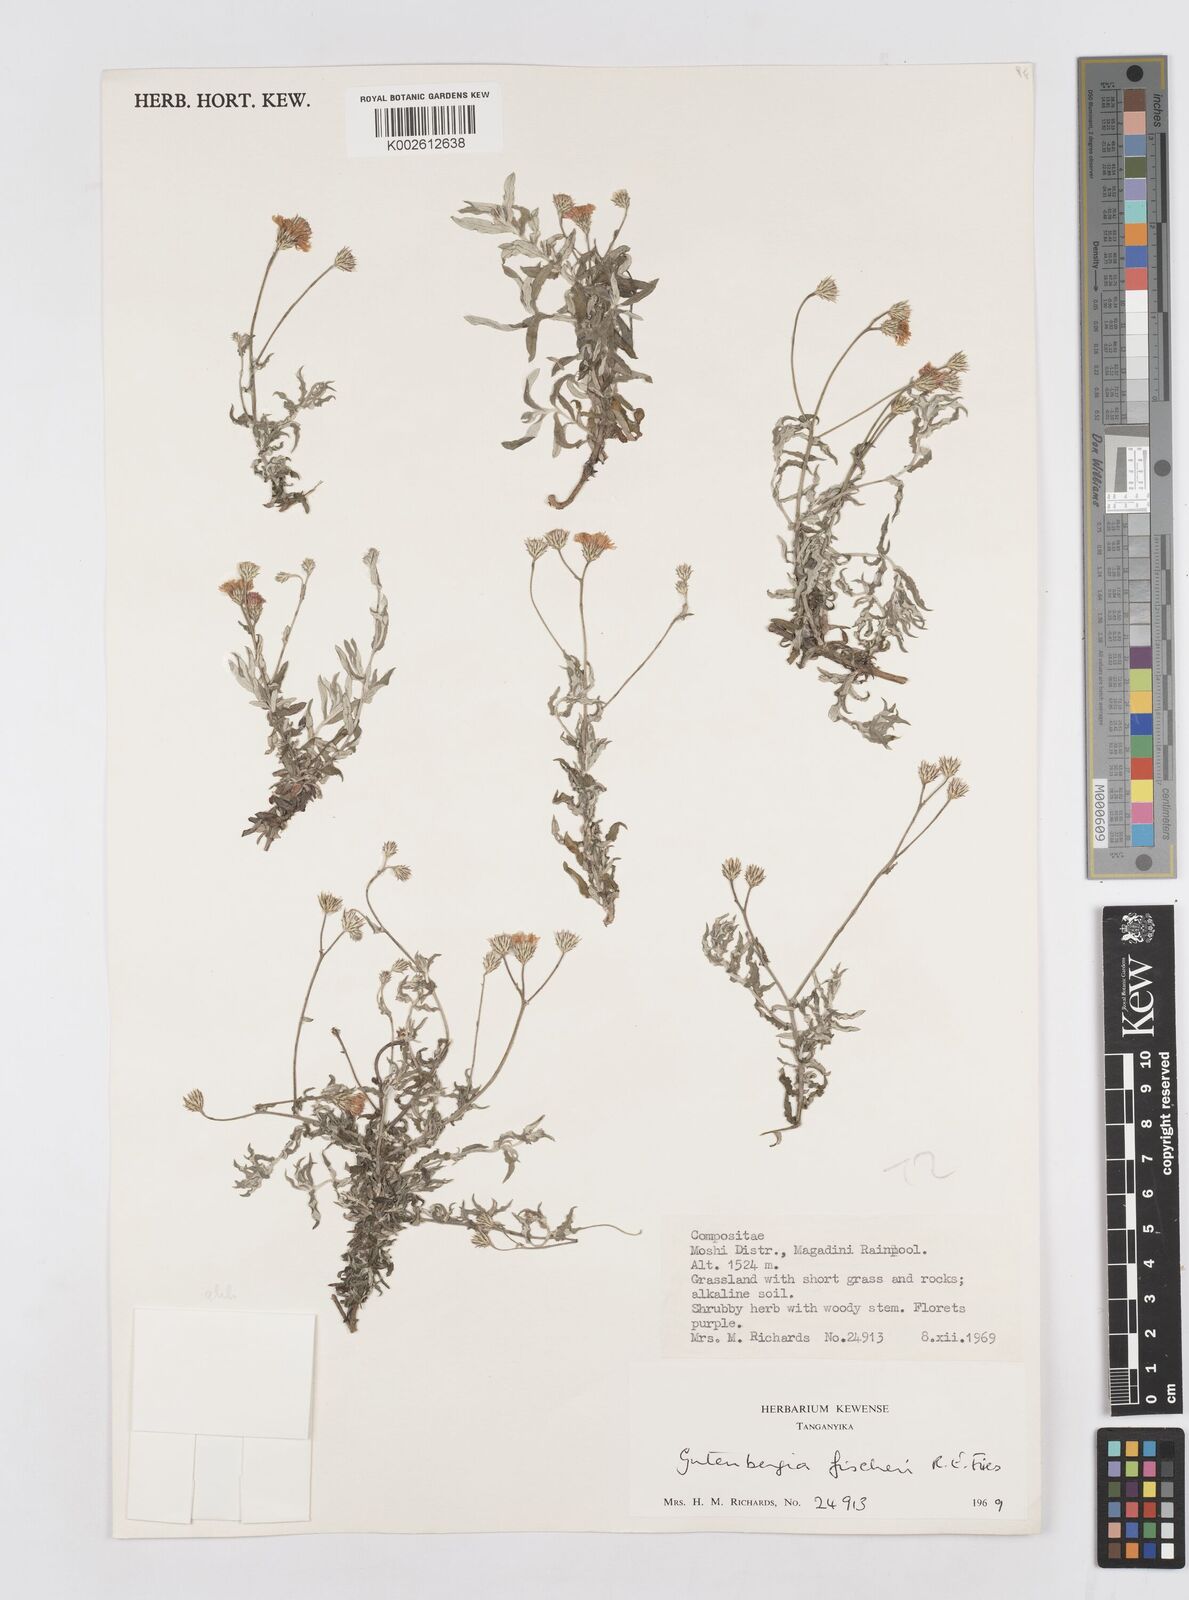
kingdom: Plantae
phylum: Tracheophyta
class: Magnoliopsida
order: Asterales
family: Asteraceae
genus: Gutenbergia
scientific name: Gutenbergia rueppellii
